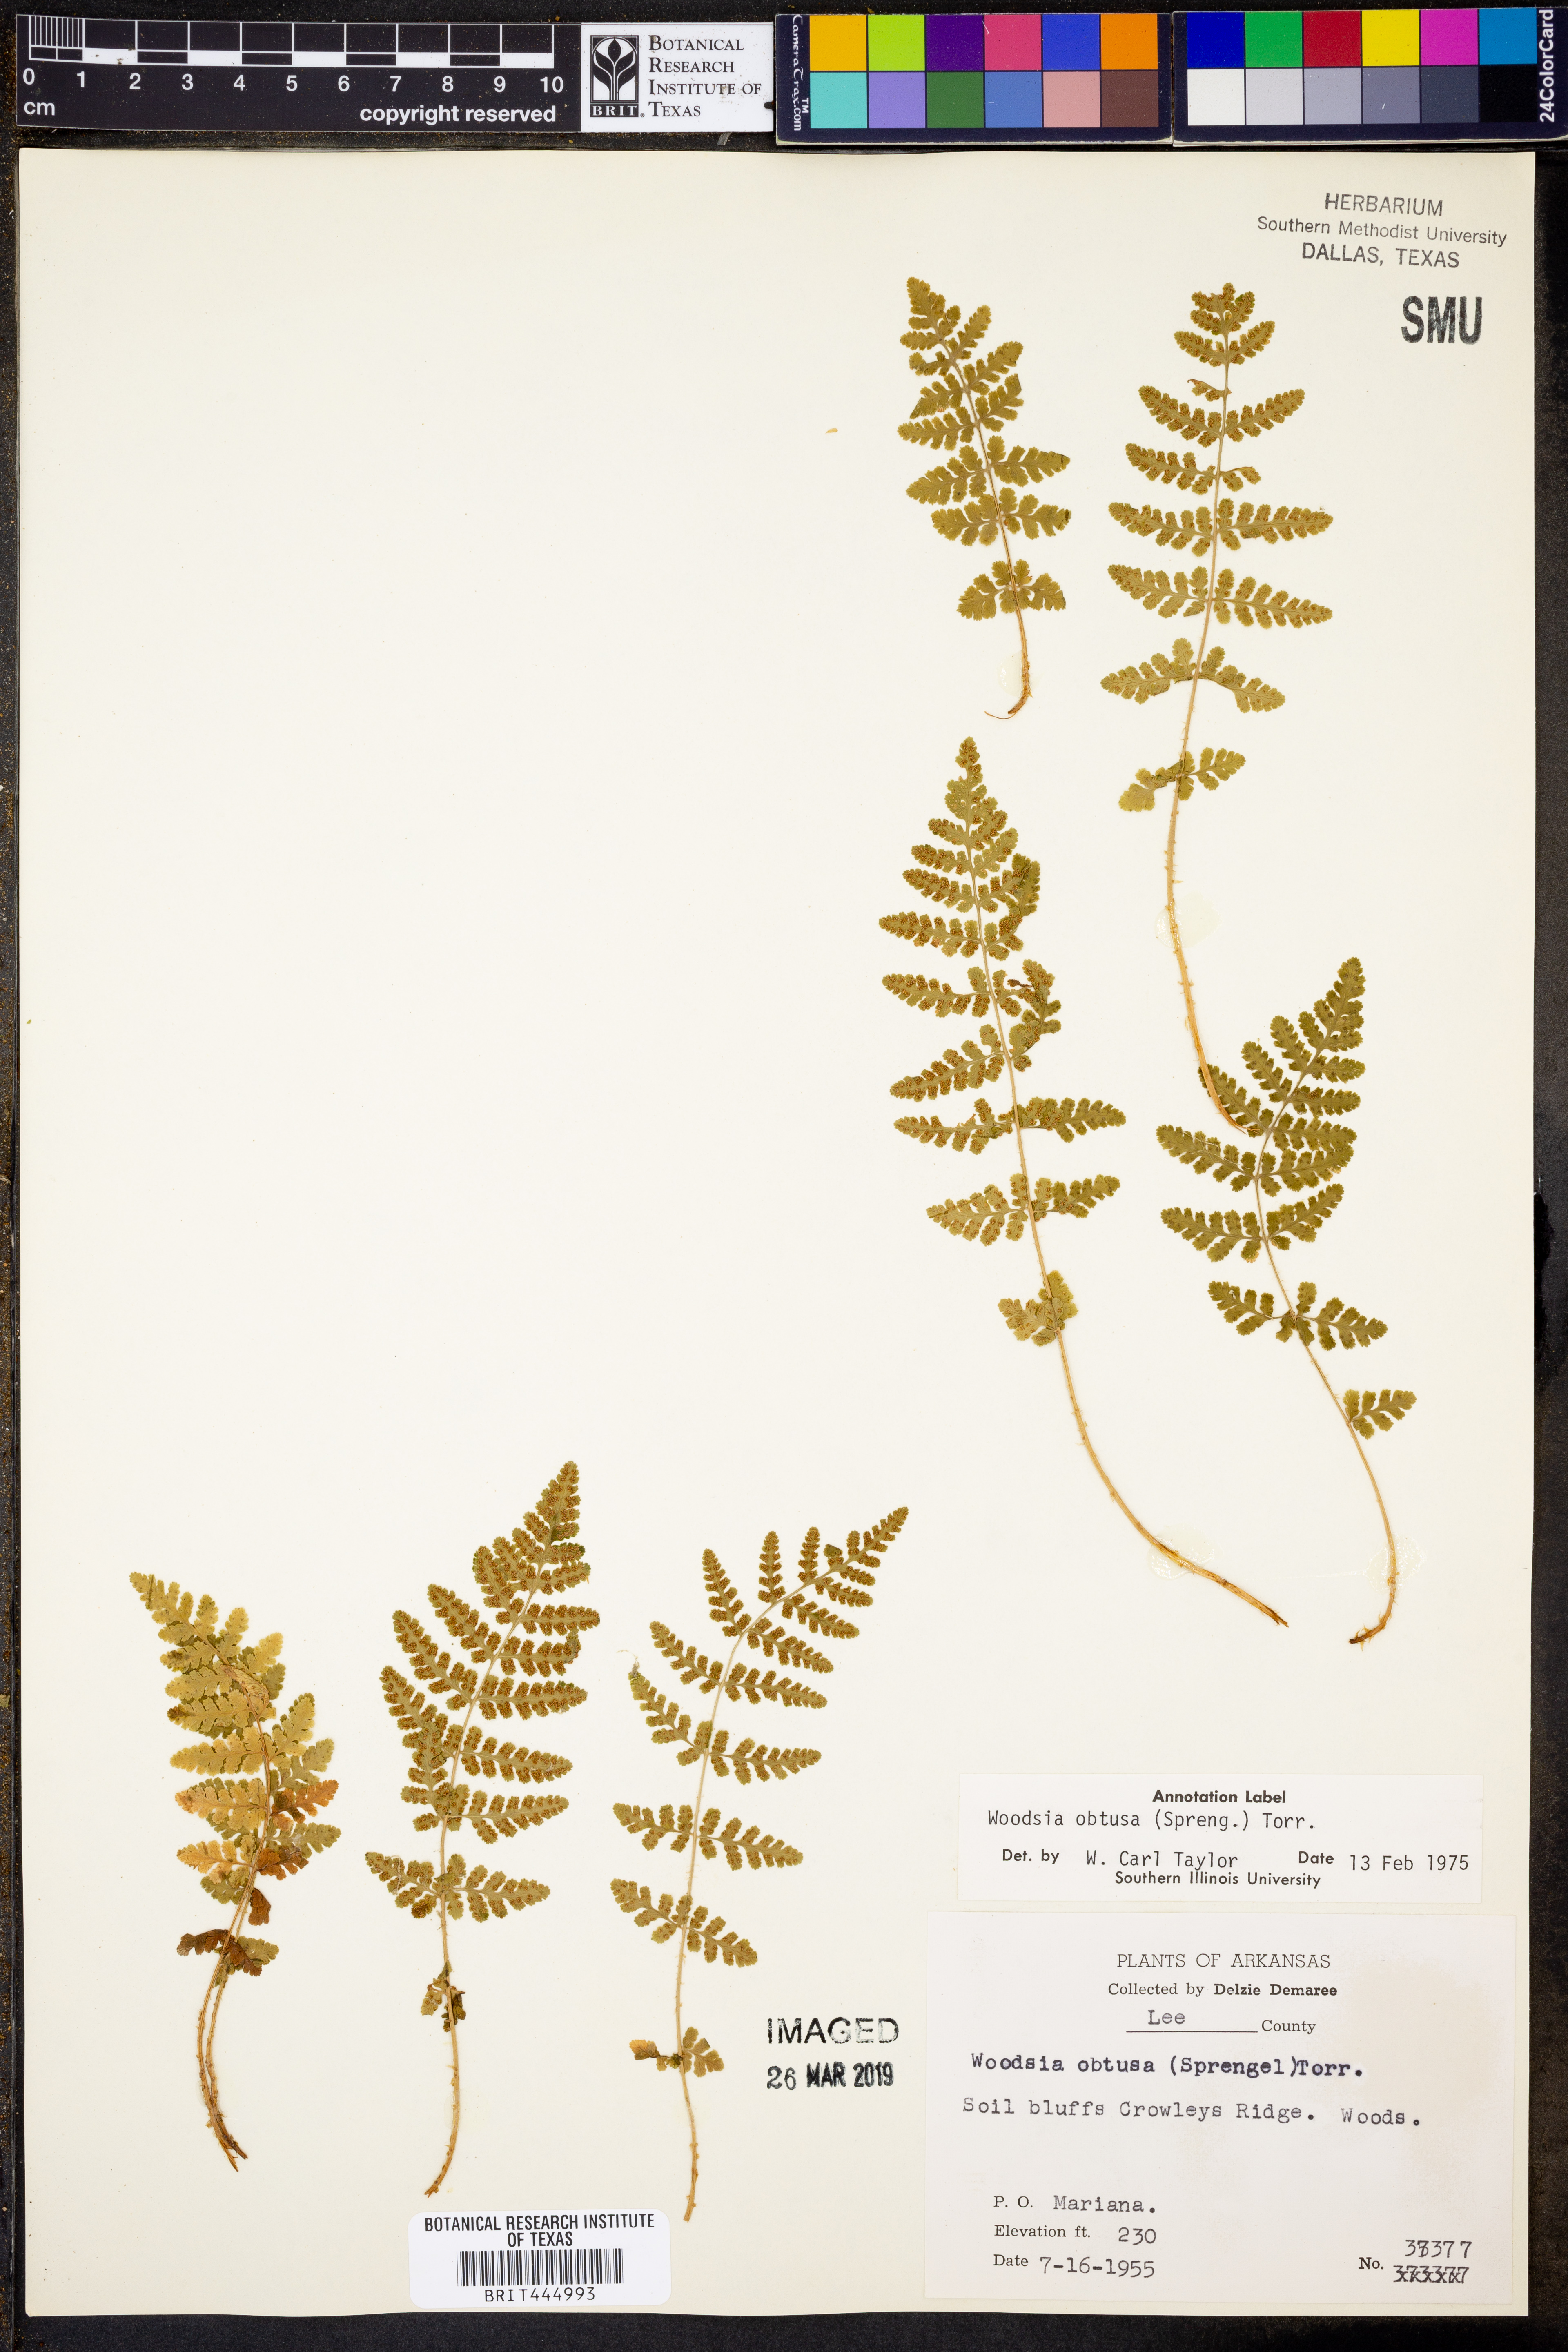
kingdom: Plantae
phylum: Tracheophyta
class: Polypodiopsida
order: Polypodiales
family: Woodsiaceae
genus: Physematium
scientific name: Physematium obtusum
